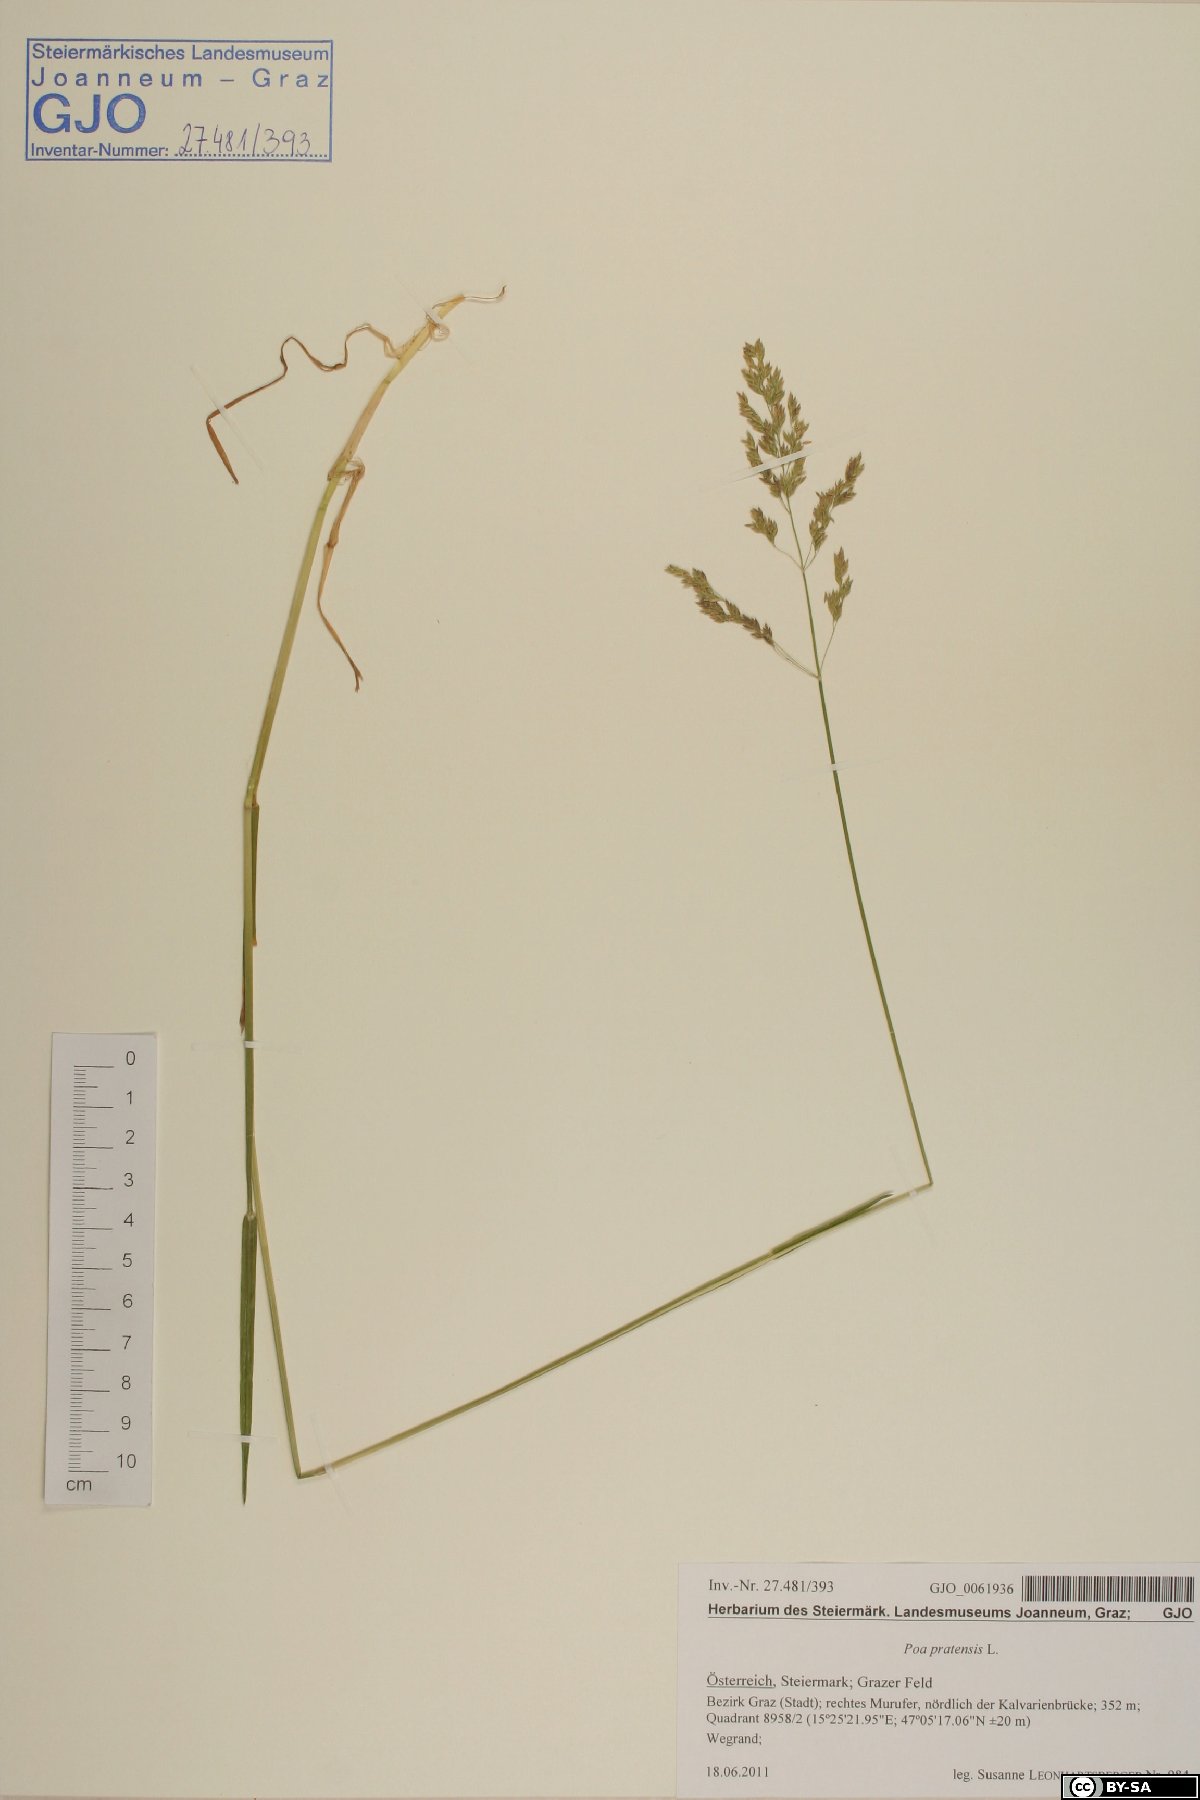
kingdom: Plantae
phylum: Tracheophyta
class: Liliopsida
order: Poales
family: Poaceae
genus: Poa
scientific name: Poa pratensis
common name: Kentucky bluegrass
